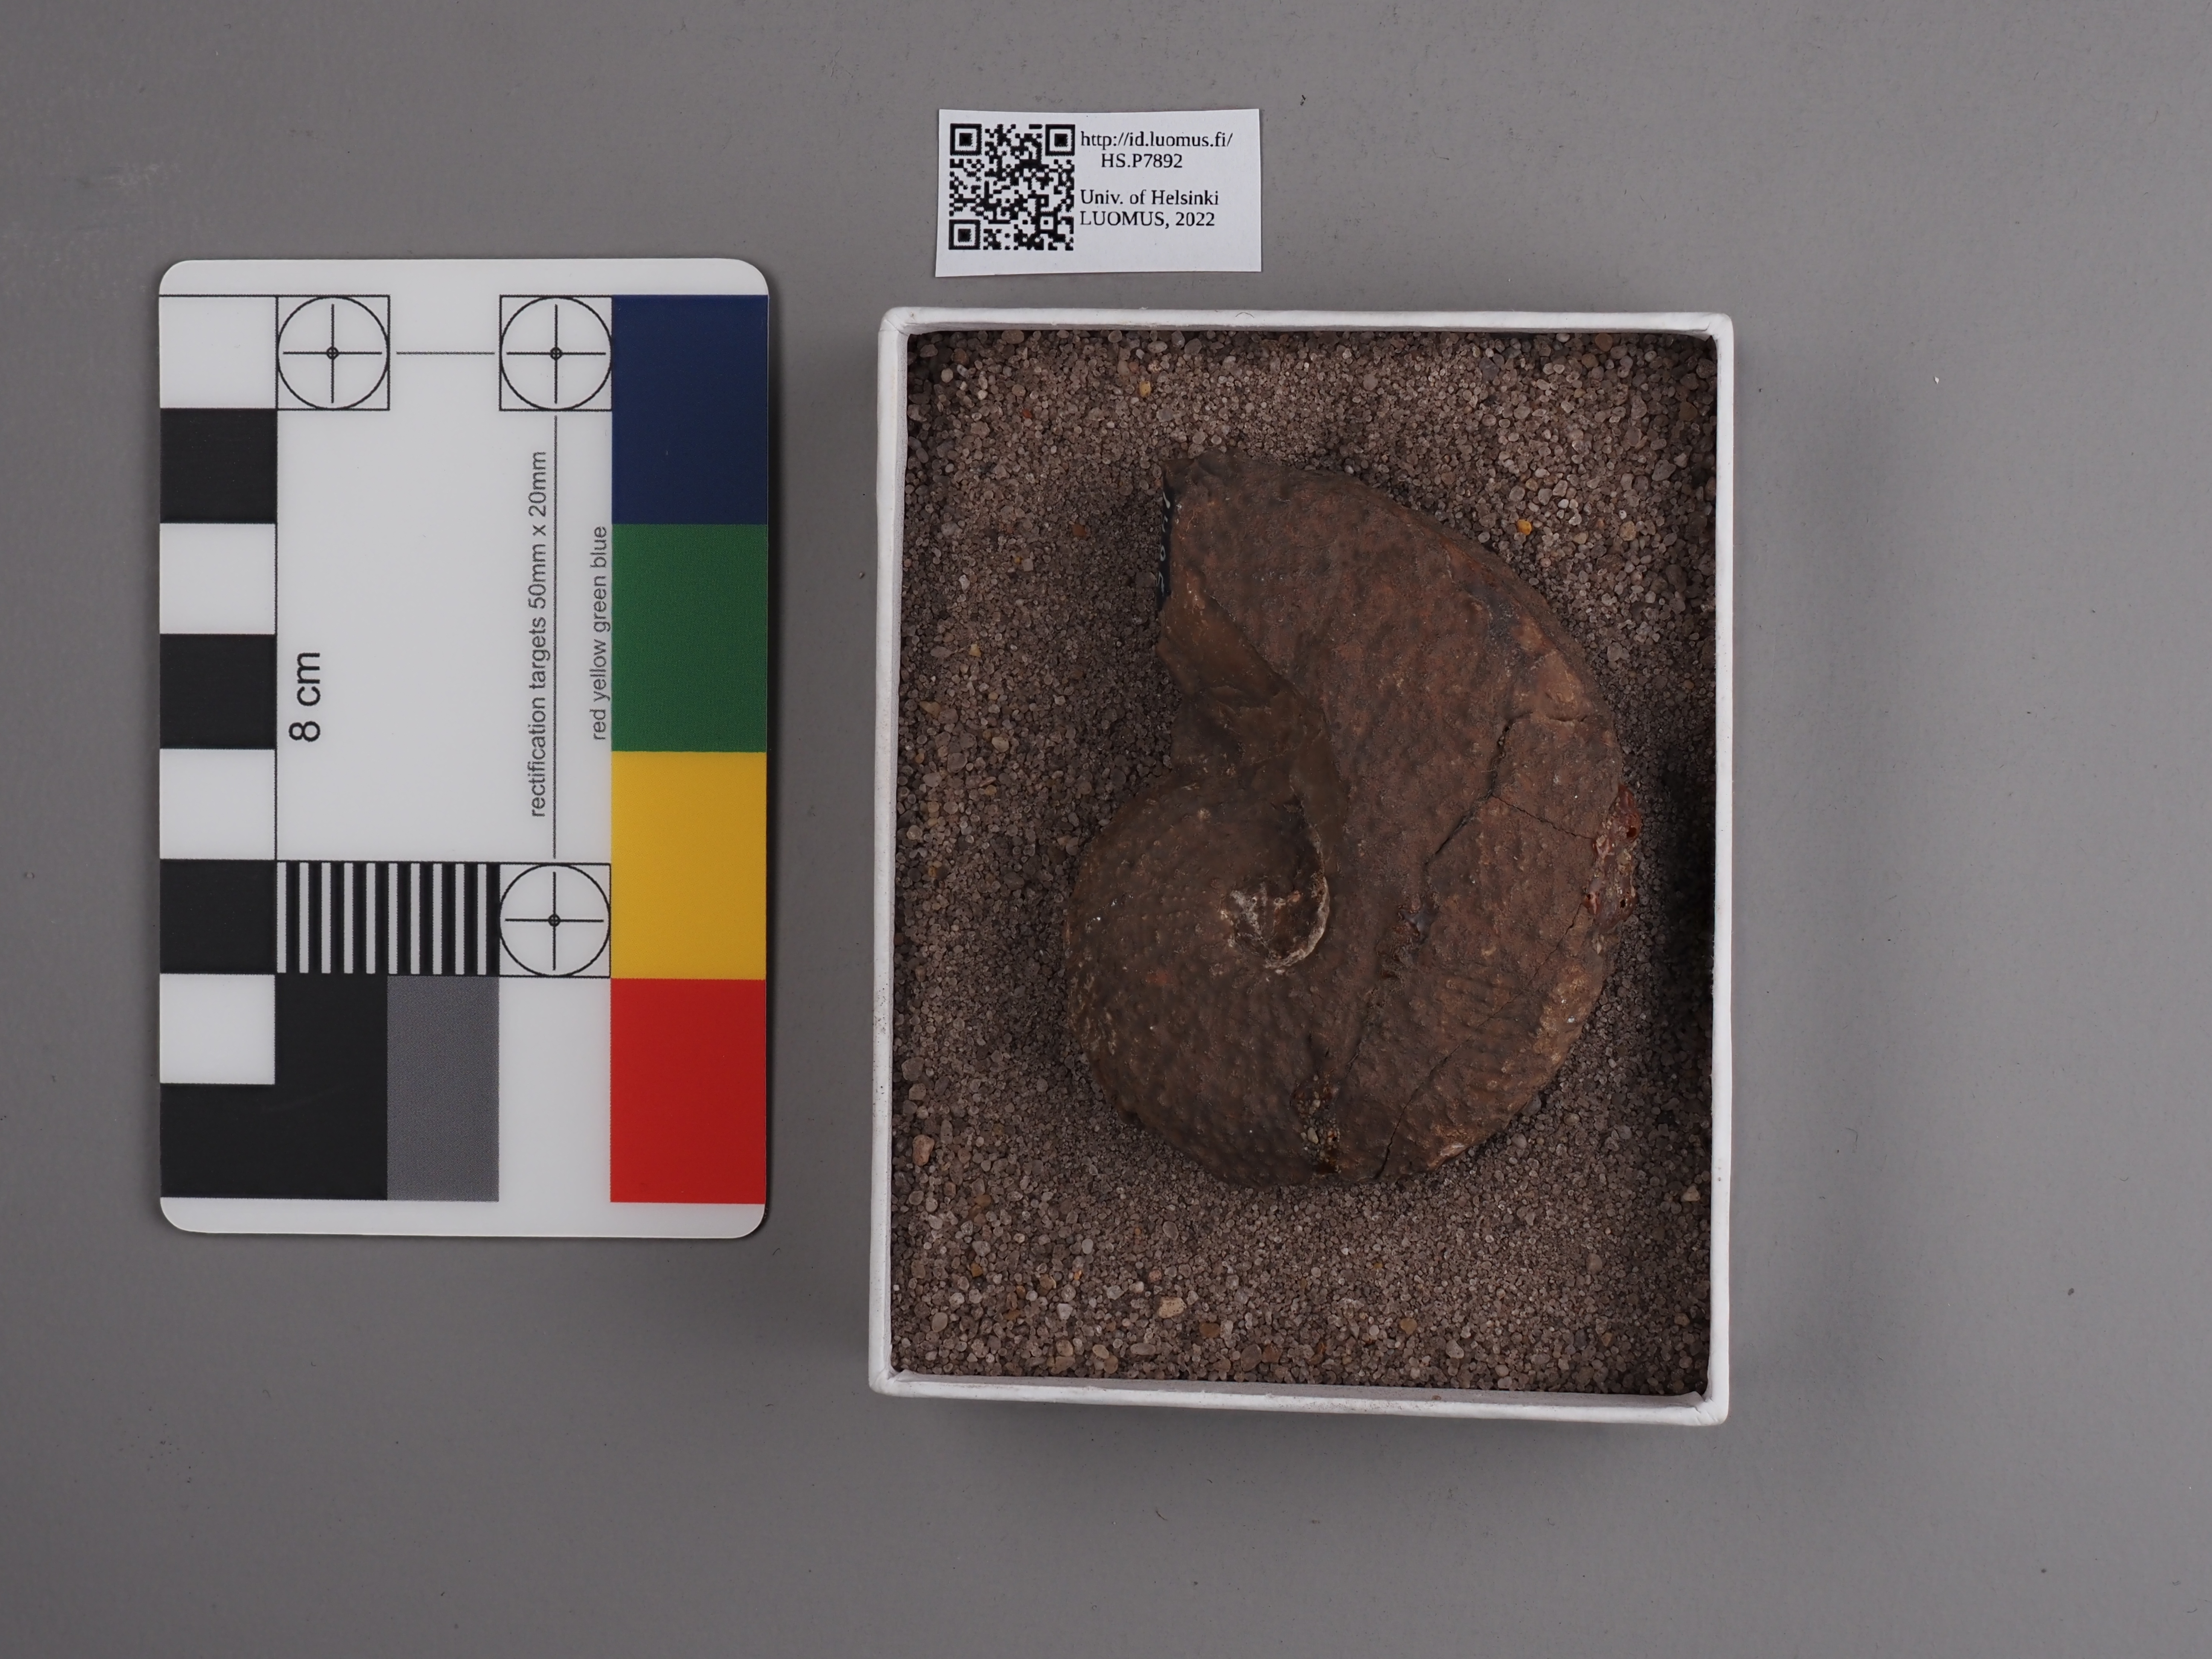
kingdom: Animalia
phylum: Mollusca
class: Cephalopoda
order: Ceratitida
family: Trachyceratidae
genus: Trachyceras
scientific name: Trachyceras aonoides
